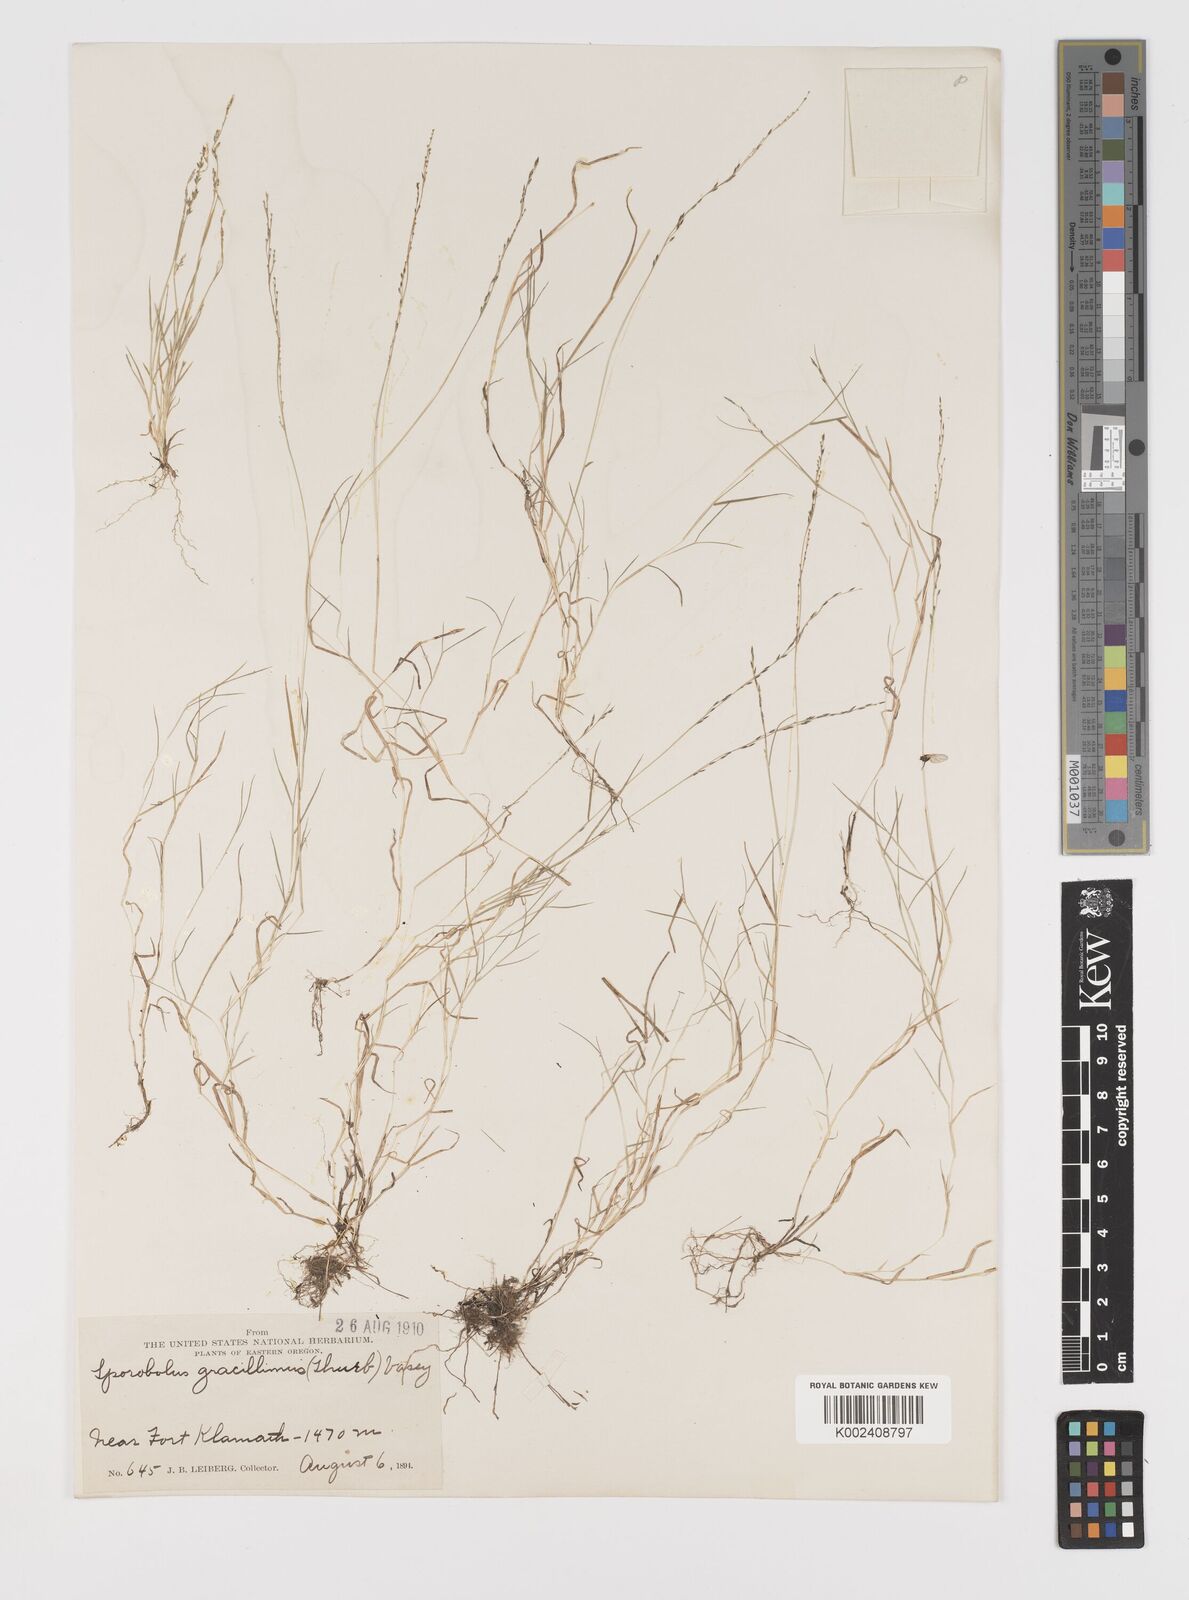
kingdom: Plantae
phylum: Tracheophyta
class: Liliopsida
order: Poales
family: Poaceae
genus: Leptochloa
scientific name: Leptochloa mucronata
